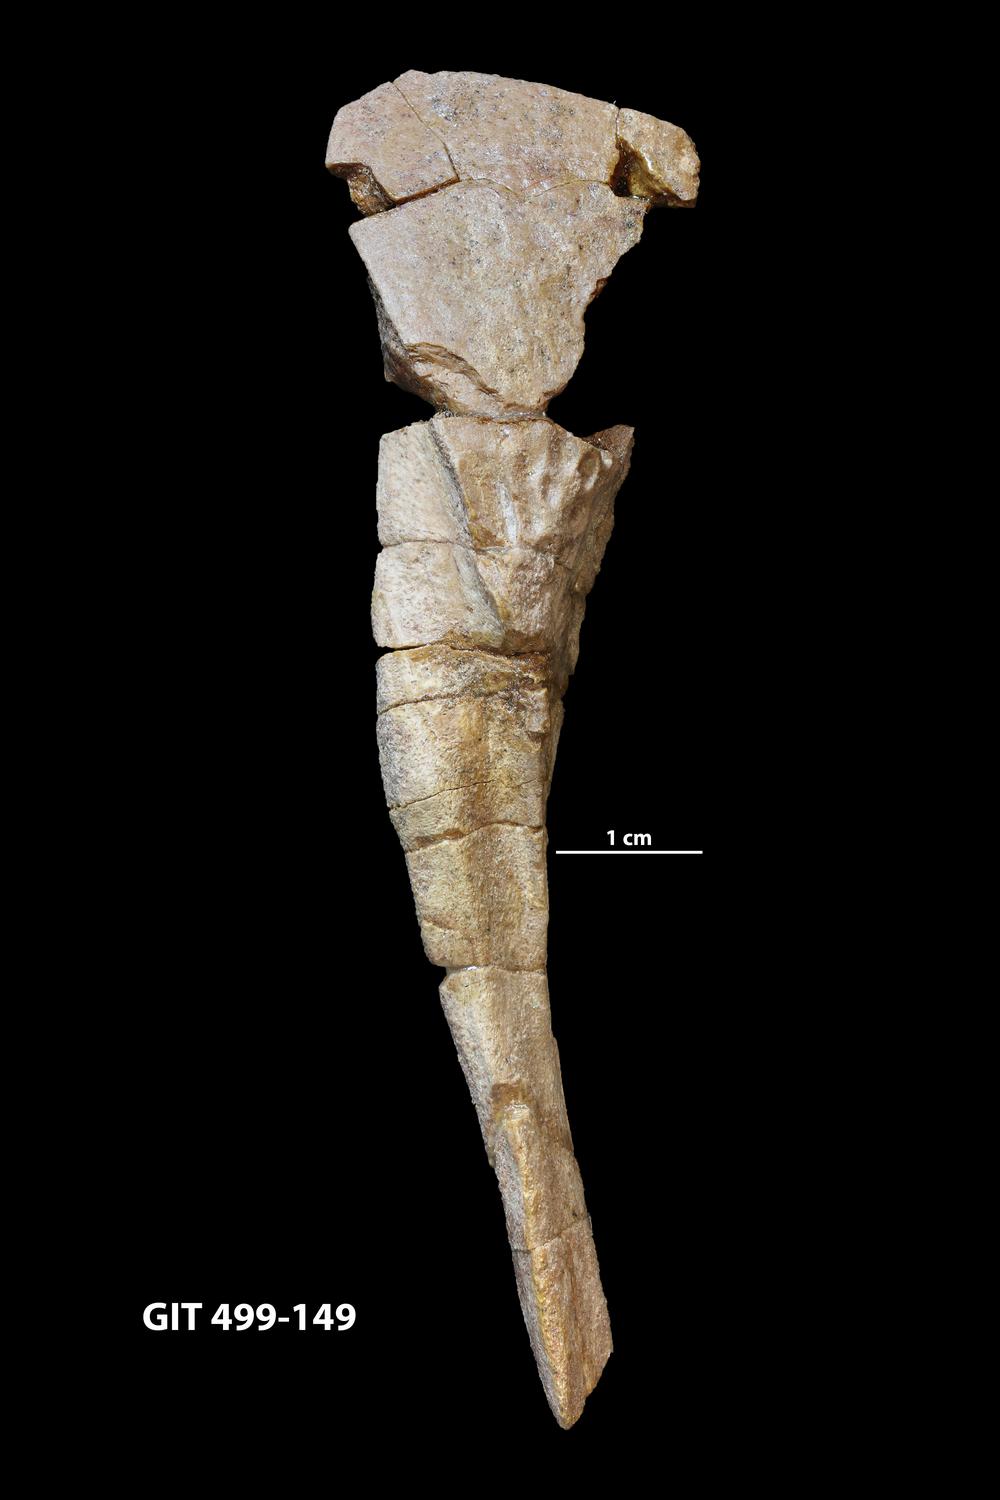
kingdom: Animalia
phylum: Chordata
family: Holoptychiidae
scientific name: Holoptychiidae
